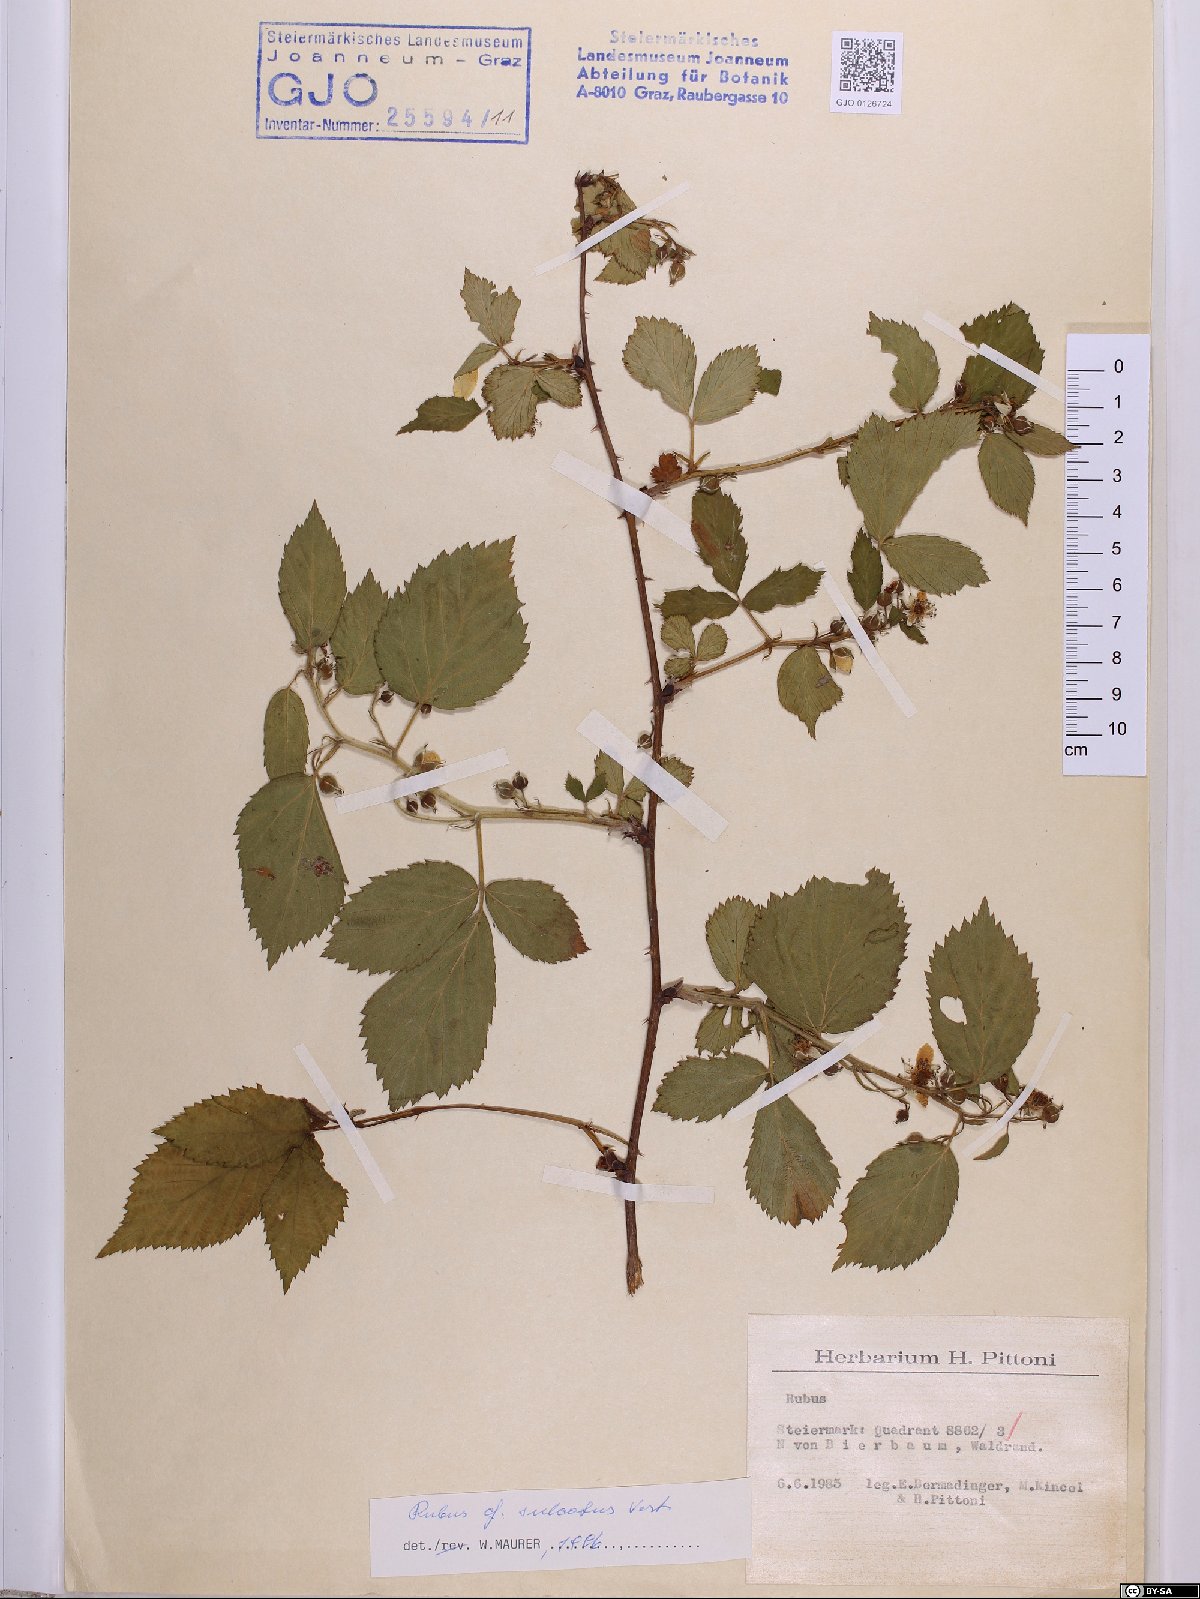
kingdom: Plantae
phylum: Tracheophyta
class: Magnoliopsida
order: Rosales
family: Rosaceae
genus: Rubus
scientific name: Rubus sulcatus
